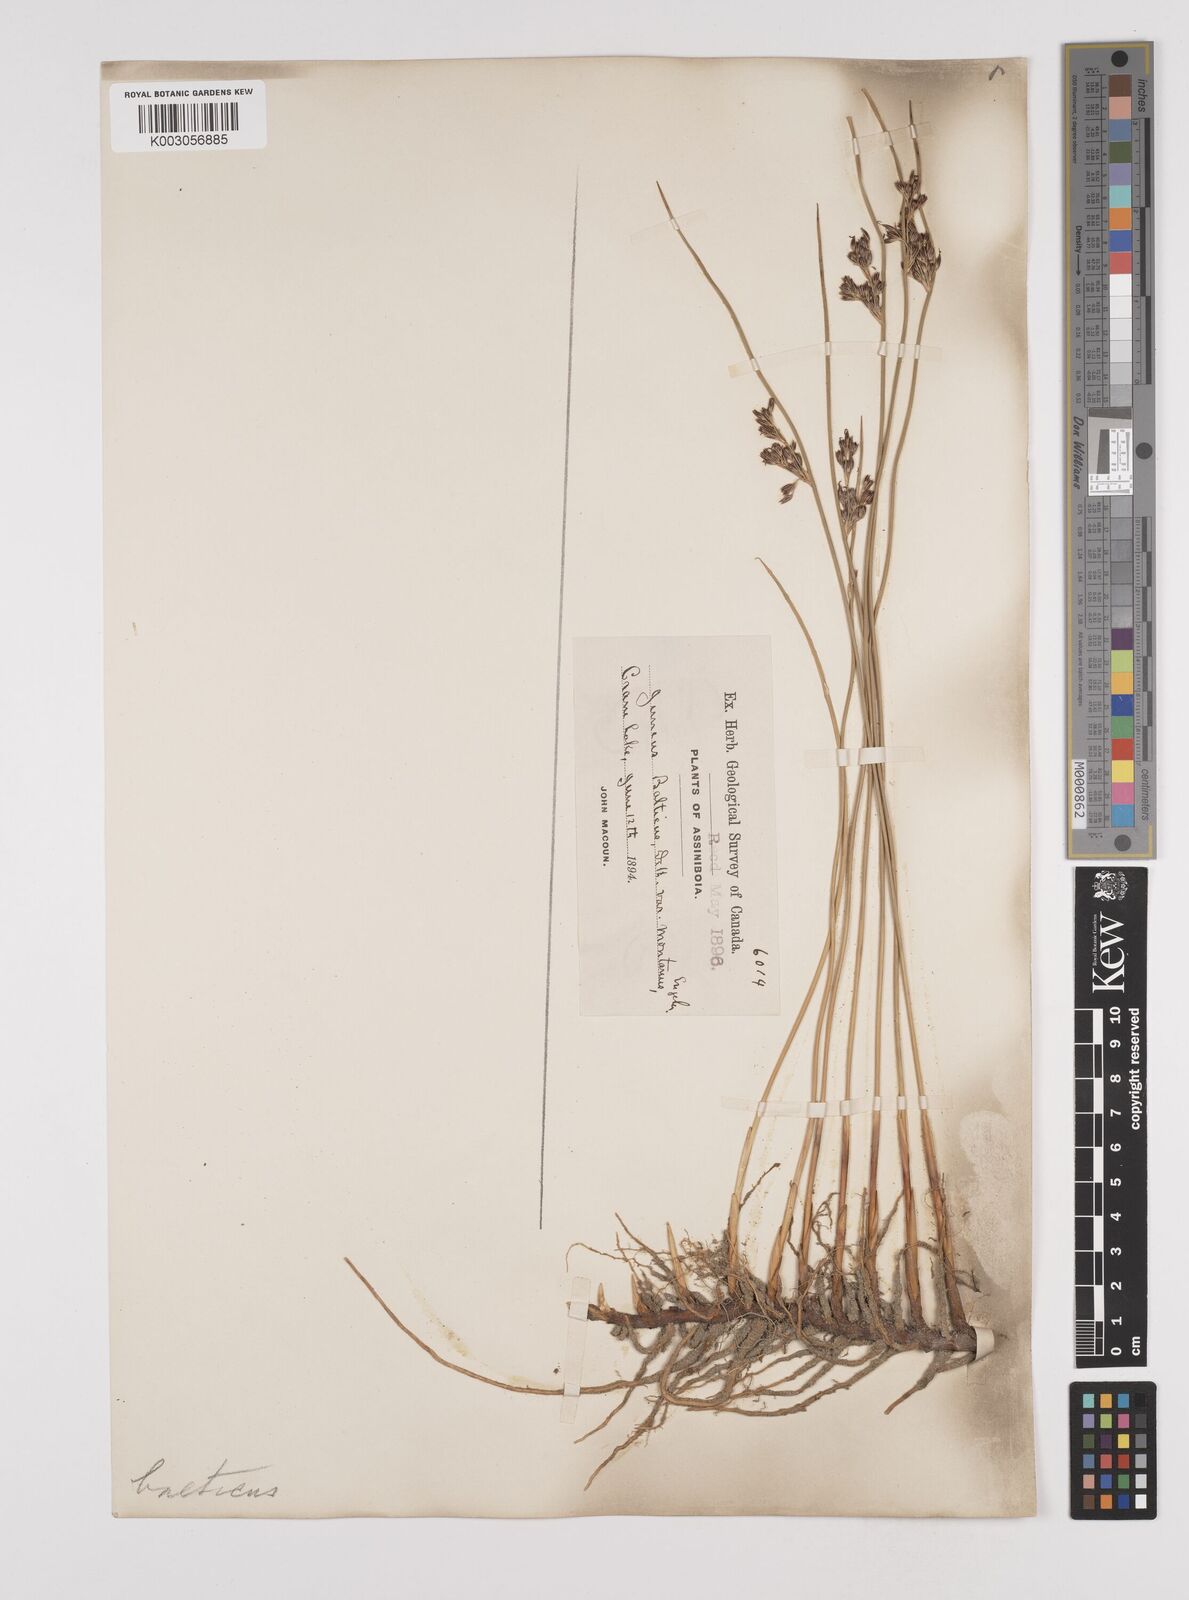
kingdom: Plantae
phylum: Tracheophyta
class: Liliopsida
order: Poales
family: Juncaceae
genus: Juncus
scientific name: Juncus
